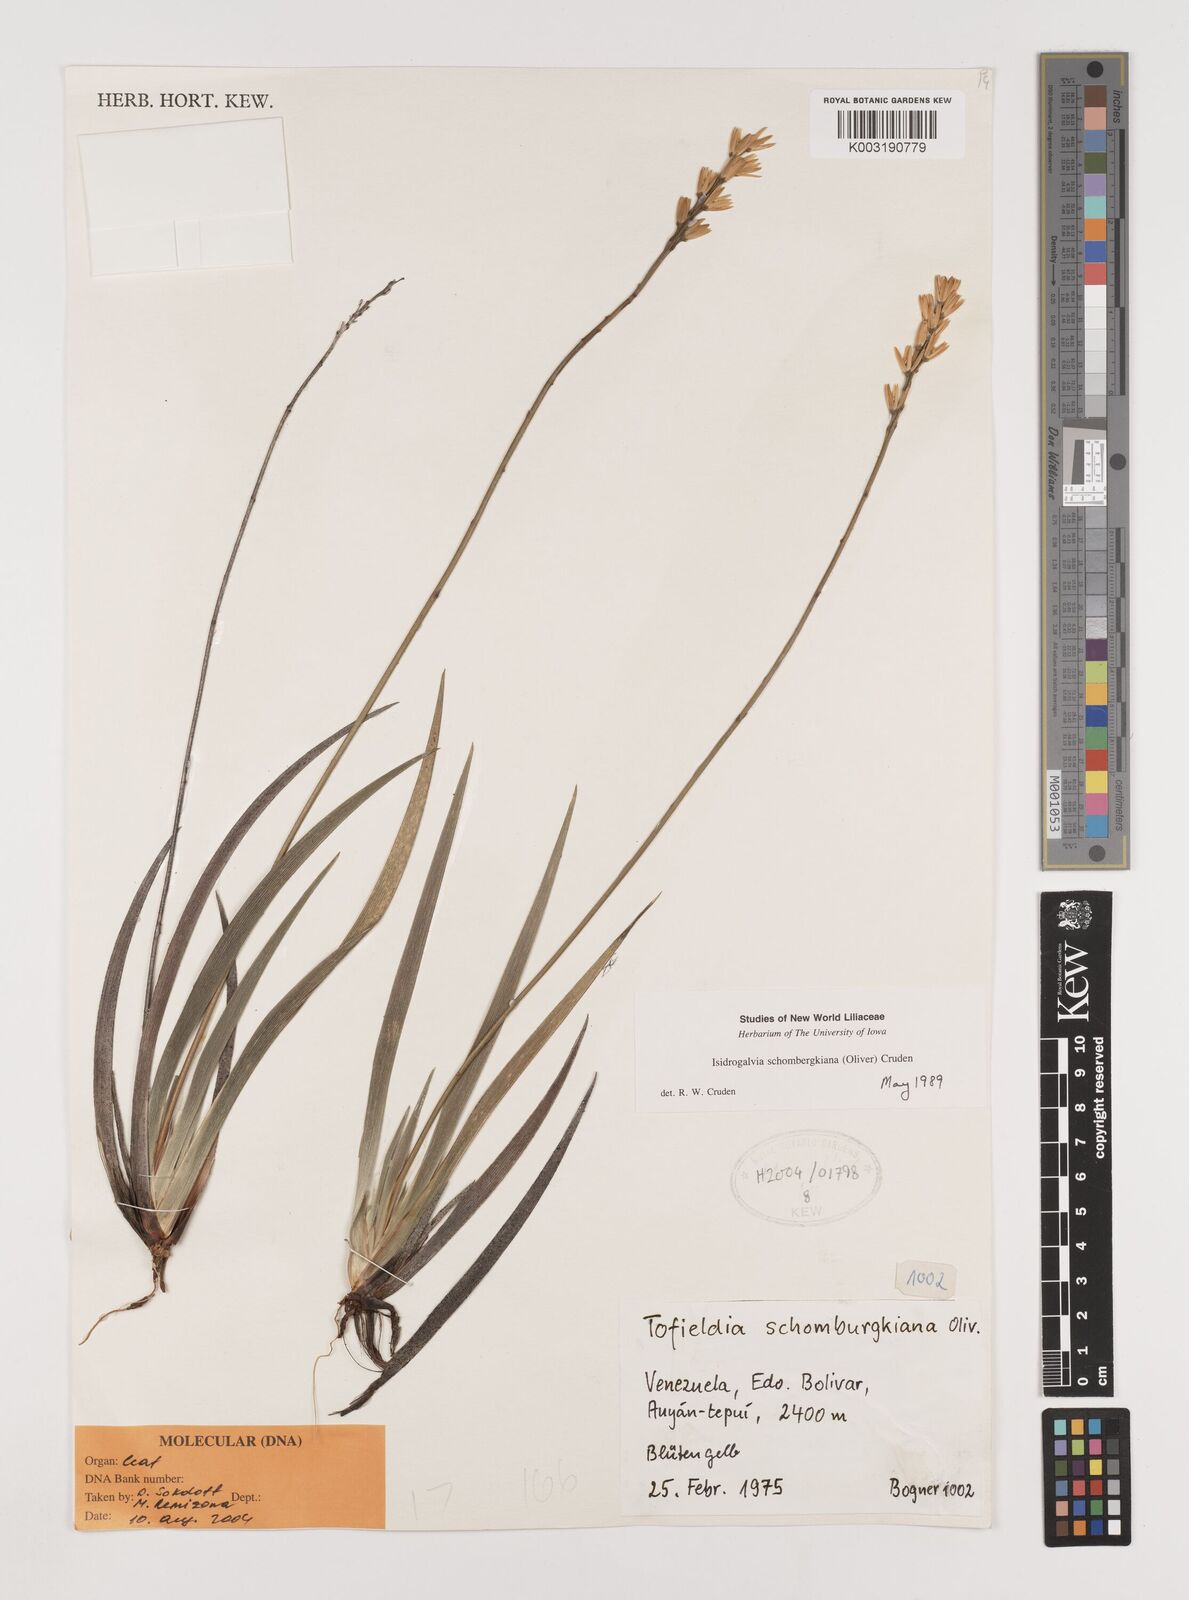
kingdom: Plantae
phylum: Tracheophyta
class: Liliopsida
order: Alismatales
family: Tofieldiaceae
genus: Harperocallis
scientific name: Harperocallis schomburgkiana
